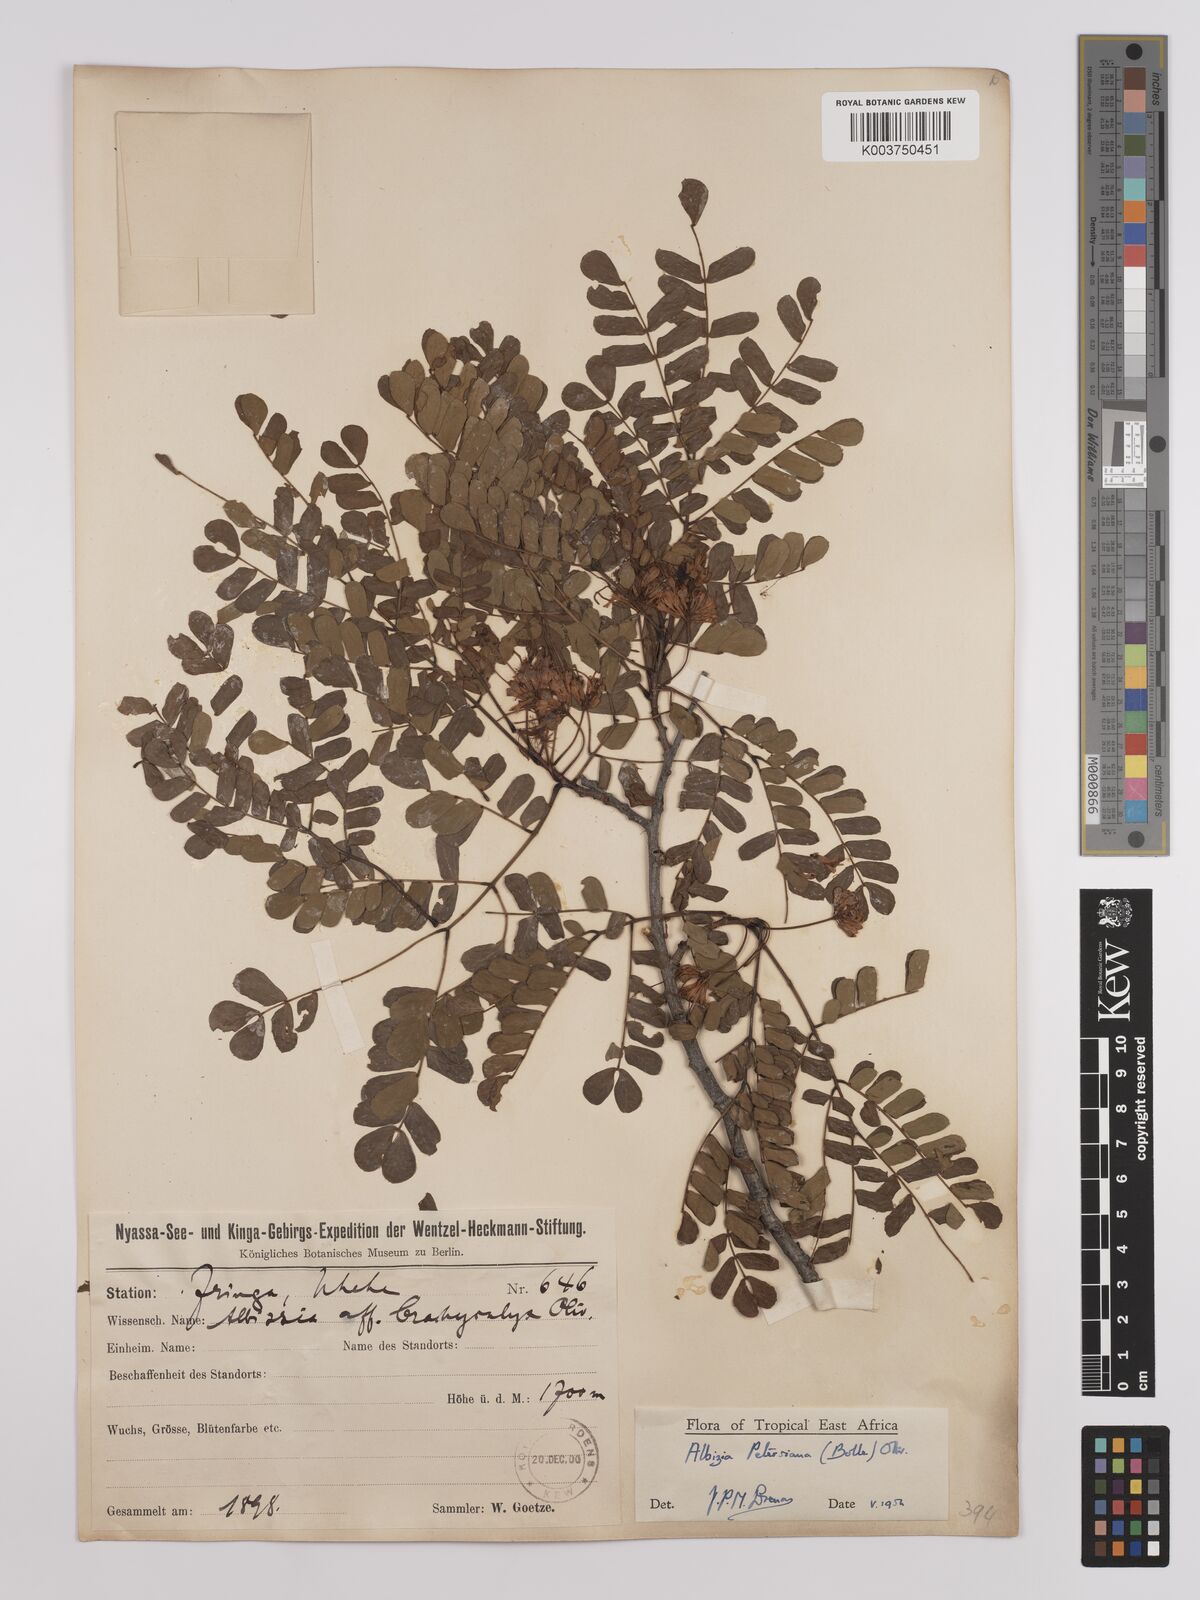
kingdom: Plantae
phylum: Tracheophyta
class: Magnoliopsida
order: Fabales
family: Fabaceae
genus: Albizia
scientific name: Albizia petersiana
